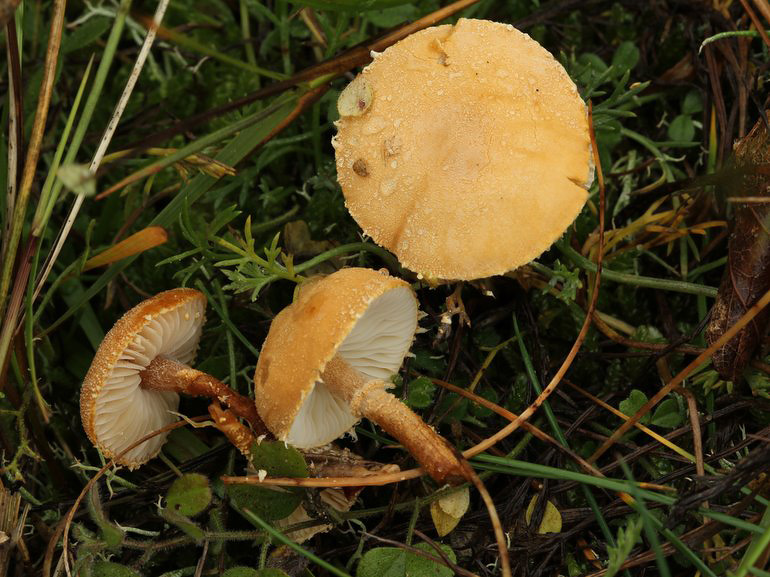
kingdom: Fungi
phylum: Basidiomycota
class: Agaricomycetes
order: Agaricales
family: Tricholomataceae
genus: Cystoderma
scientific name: Cystoderma amianthinum
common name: okkergul grynhat
